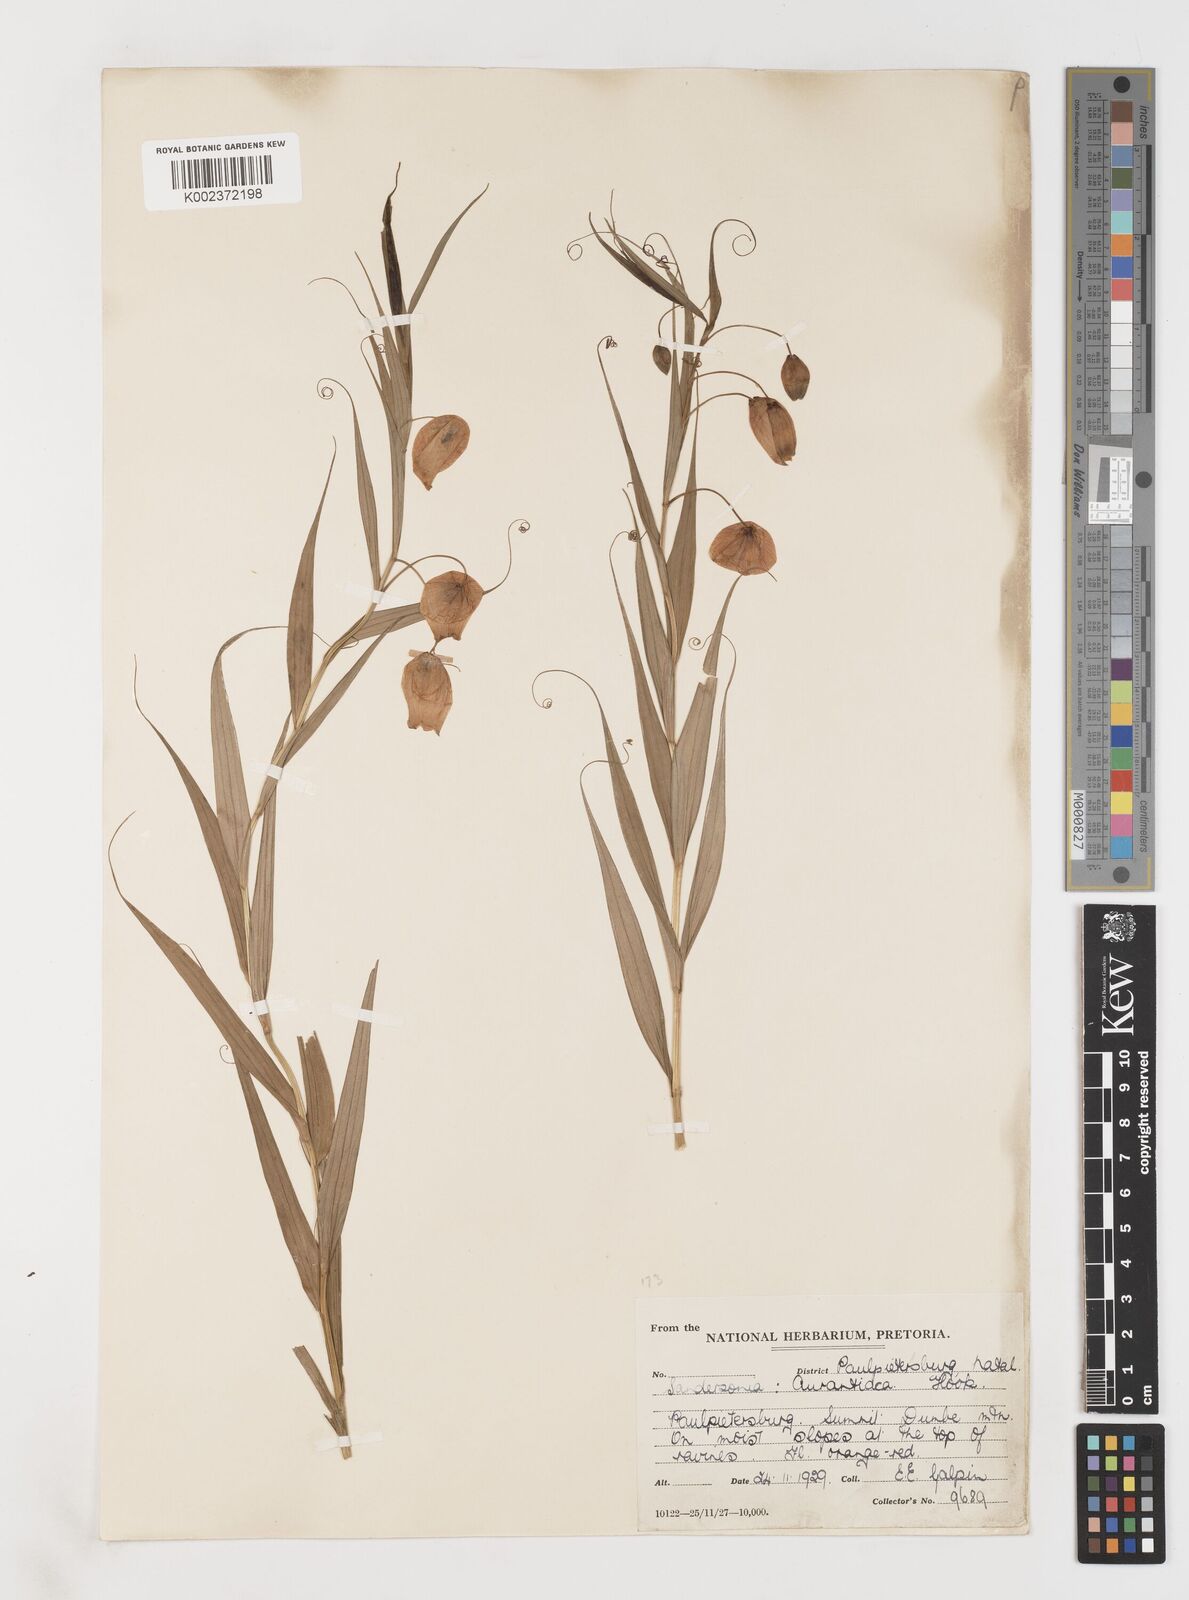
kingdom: Plantae
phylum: Tracheophyta
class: Liliopsida
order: Liliales
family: Colchicaceae
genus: Sandersonia
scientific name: Sandersonia aurantiaca
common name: Chinese-lantern-lily
